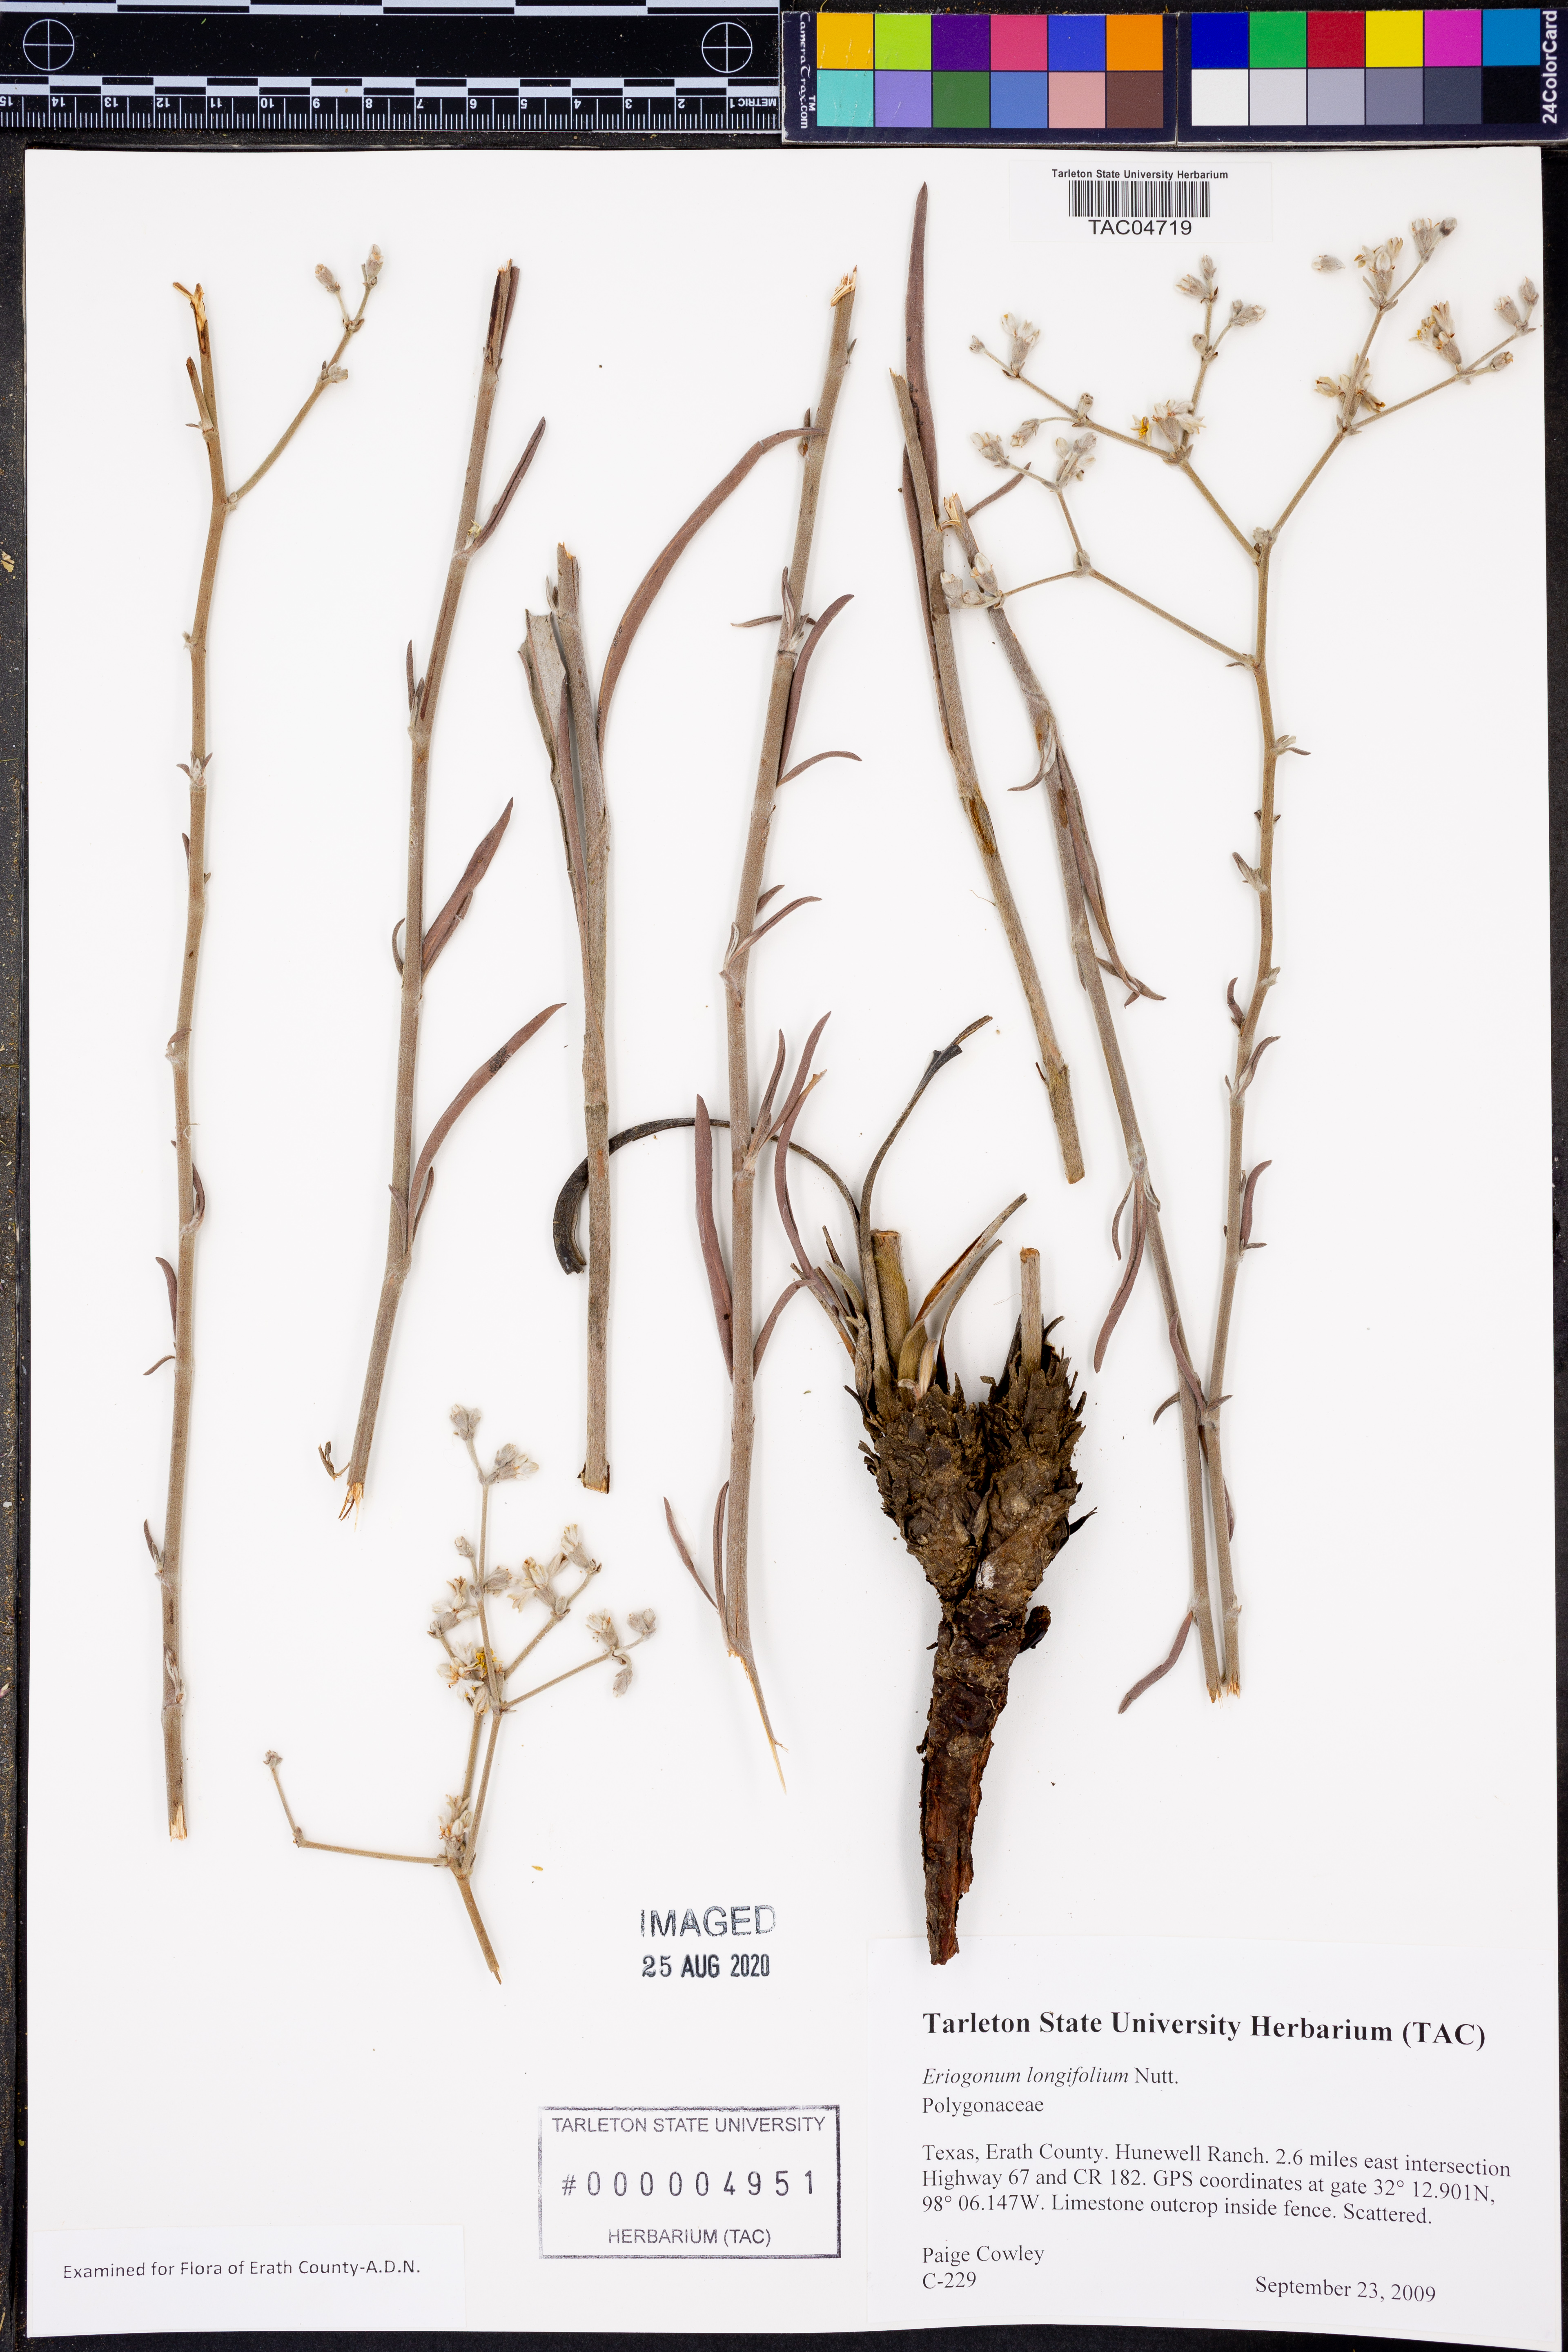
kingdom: Plantae
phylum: Tracheophyta
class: Magnoliopsida
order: Caryophyllales
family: Polygonaceae
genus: Eriogonum
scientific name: Eriogonum longifolium
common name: Longleaf wild buckwheat
